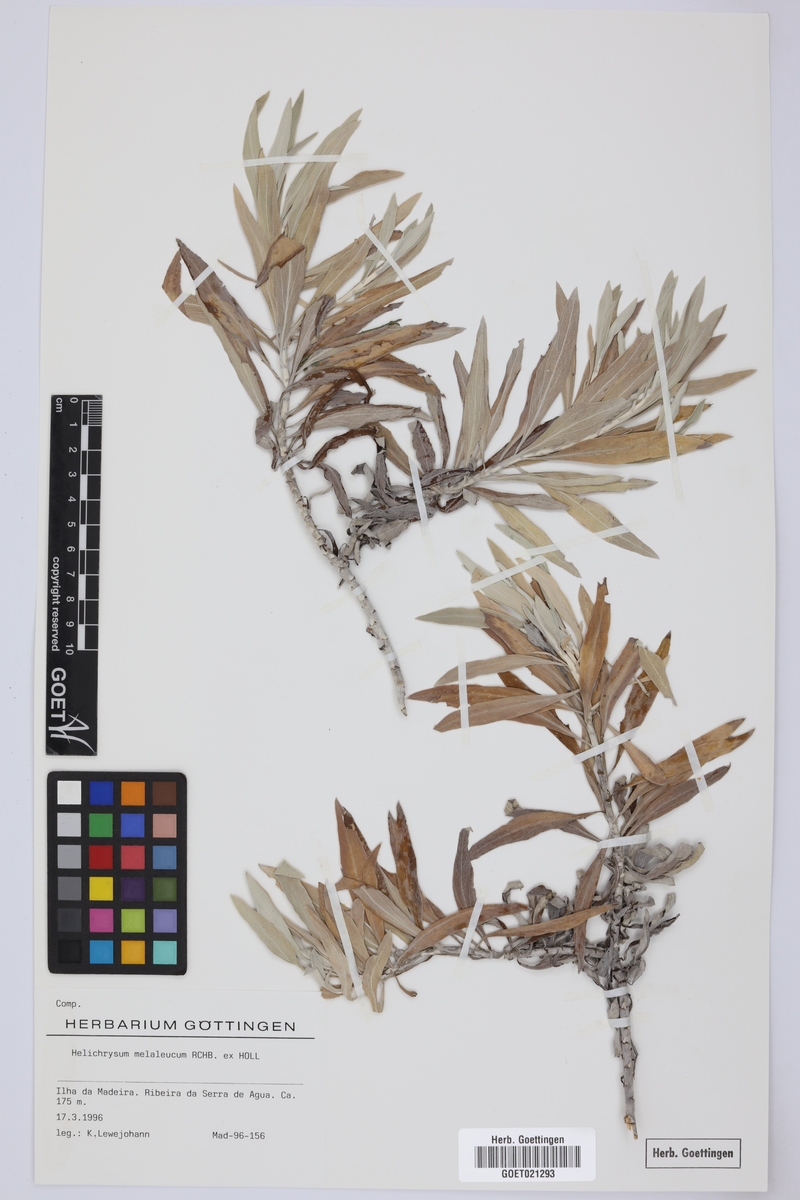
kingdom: Plantae
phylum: Tracheophyta
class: Magnoliopsida
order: Asterales
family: Asteraceae
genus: Helichrysum
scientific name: Helichrysum melaleucum
